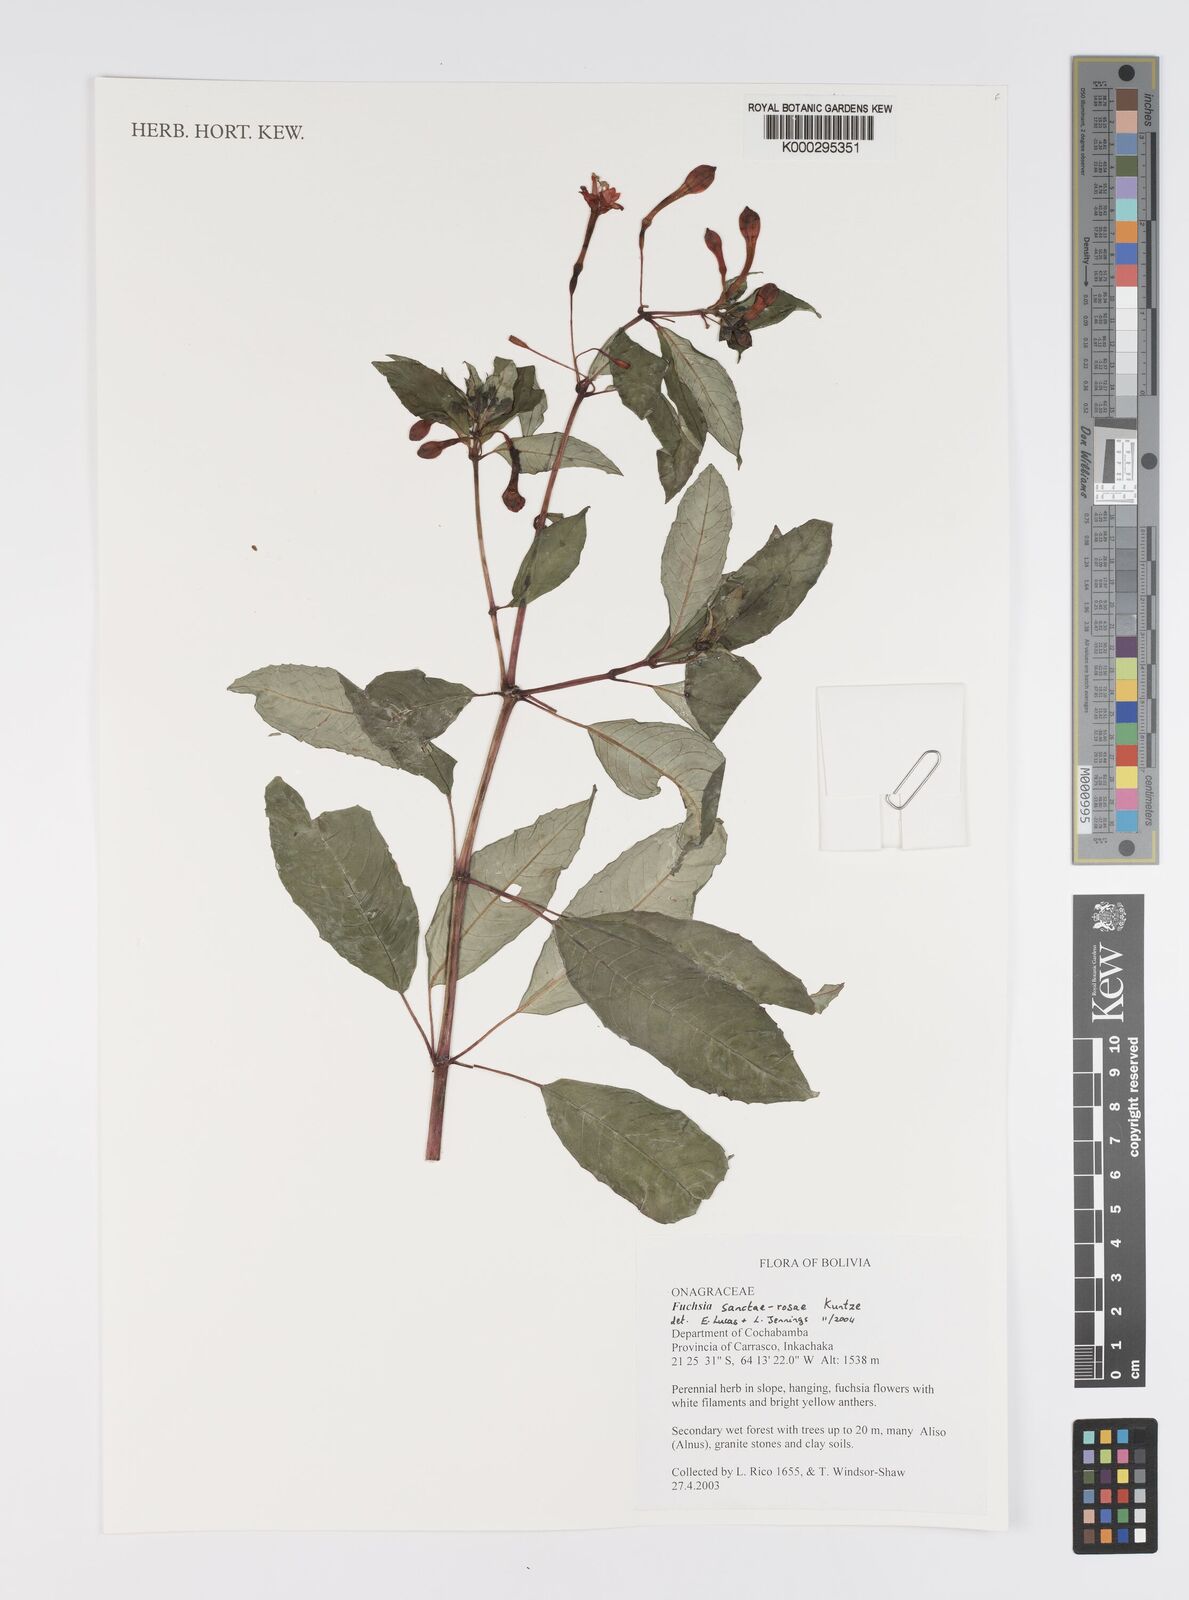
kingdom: Plantae
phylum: Tracheophyta
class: Magnoliopsida
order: Myrtales
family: Onagraceae
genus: Fuchsia
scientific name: Fuchsia sanctae-rosae
